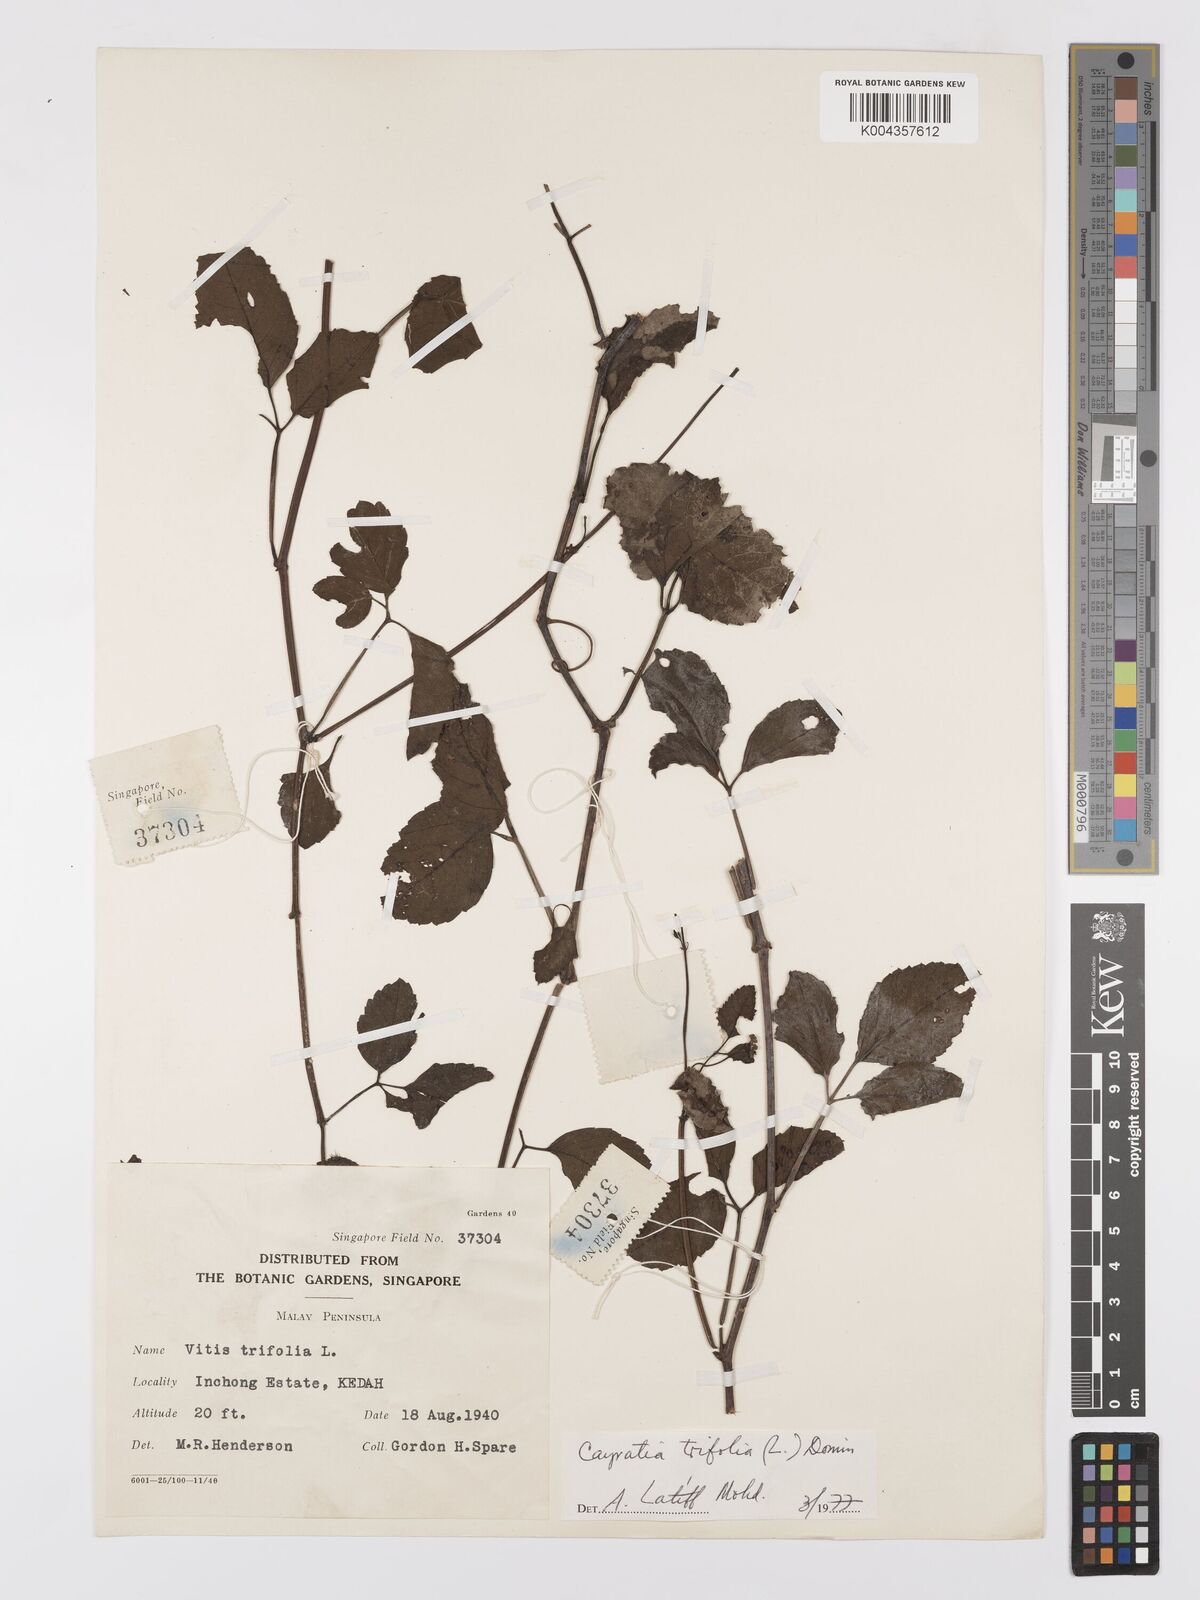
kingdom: Plantae
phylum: Tracheophyta
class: Magnoliopsida
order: Vitales
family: Vitaceae
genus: Causonis
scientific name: Causonis trifolia
